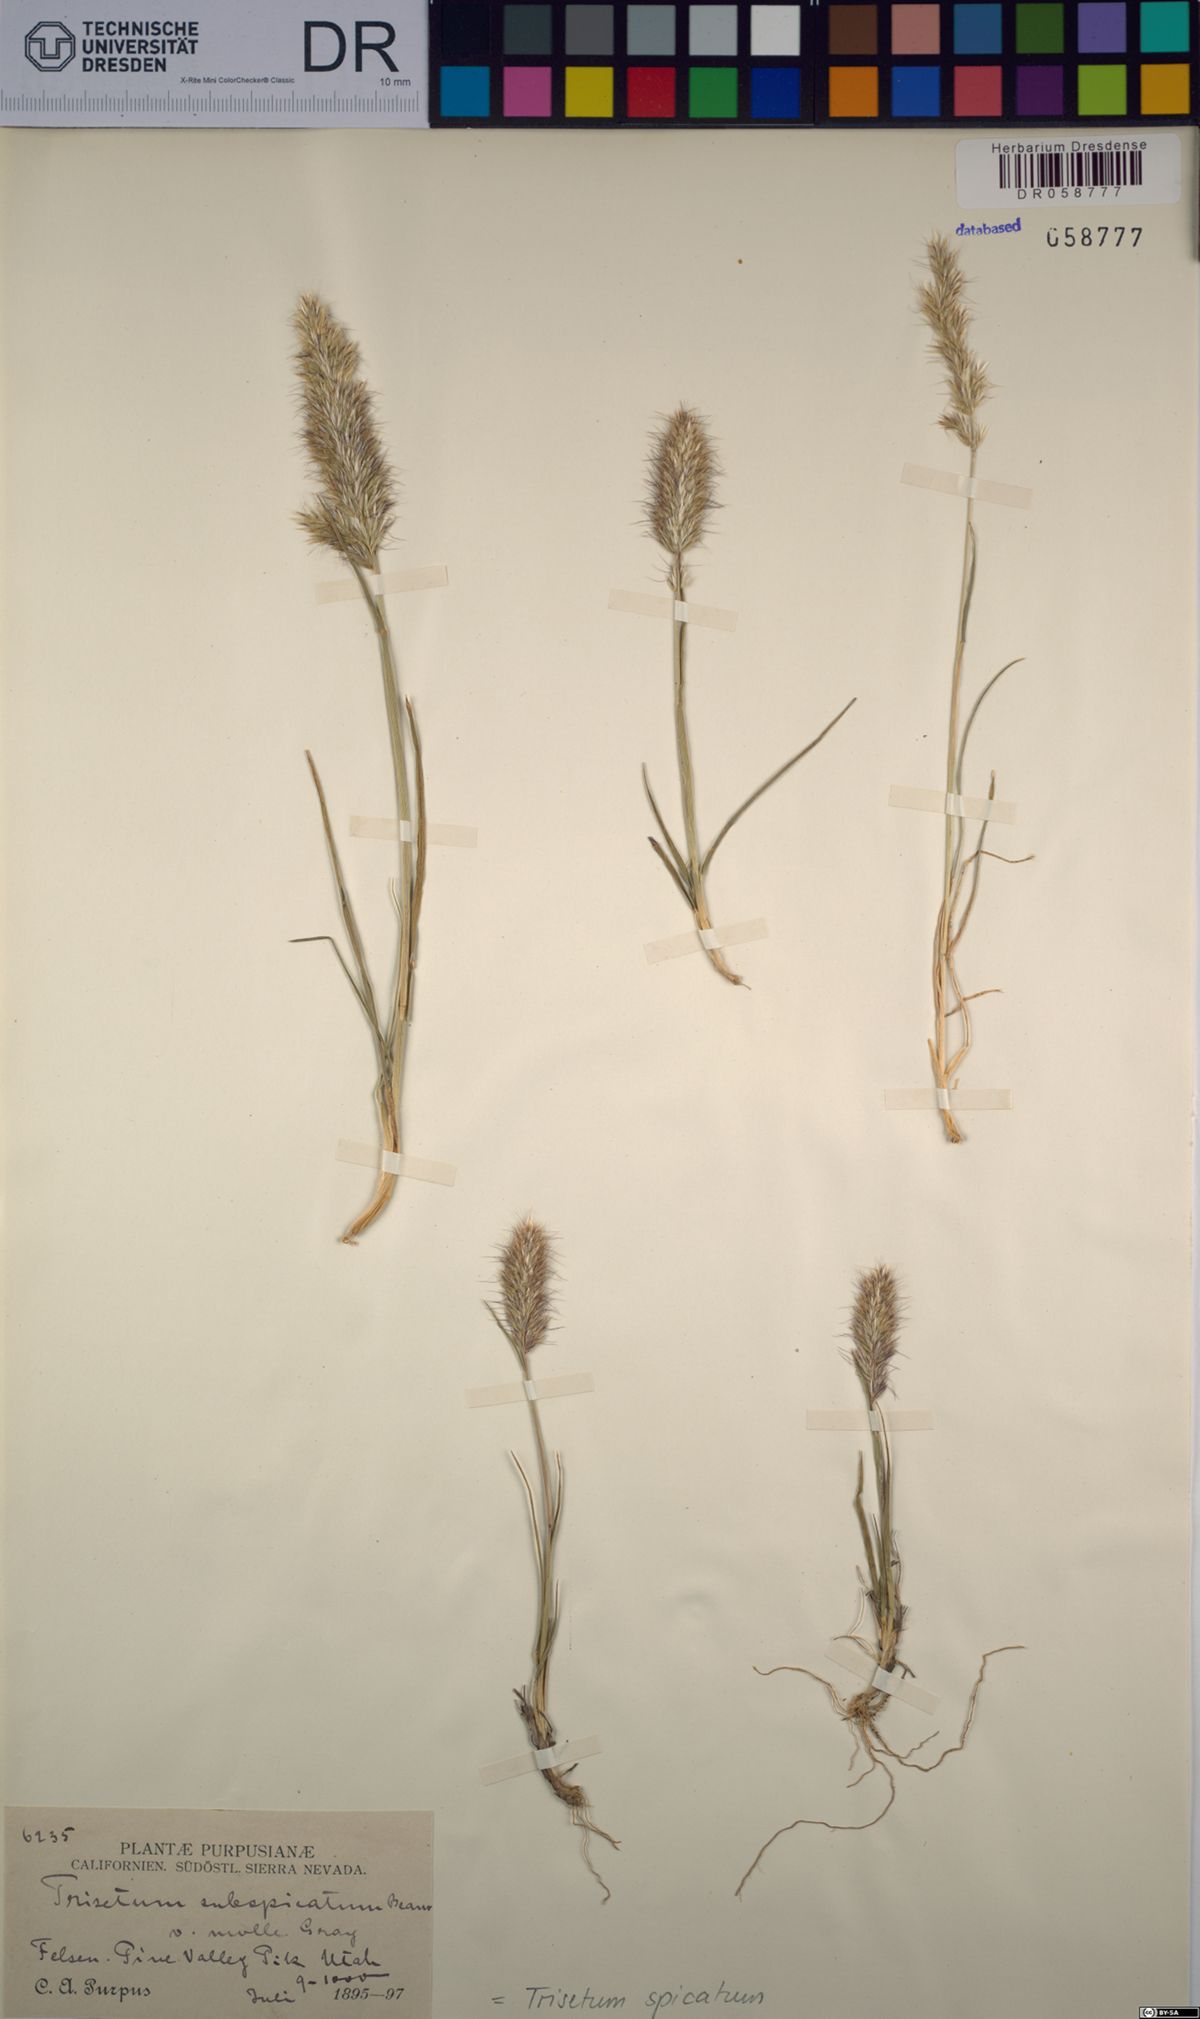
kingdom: Plantae
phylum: Tracheophyta
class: Liliopsida
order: Poales
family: Poaceae
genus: Koeleria
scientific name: Koeleria spicata
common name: Mountain trisetum
